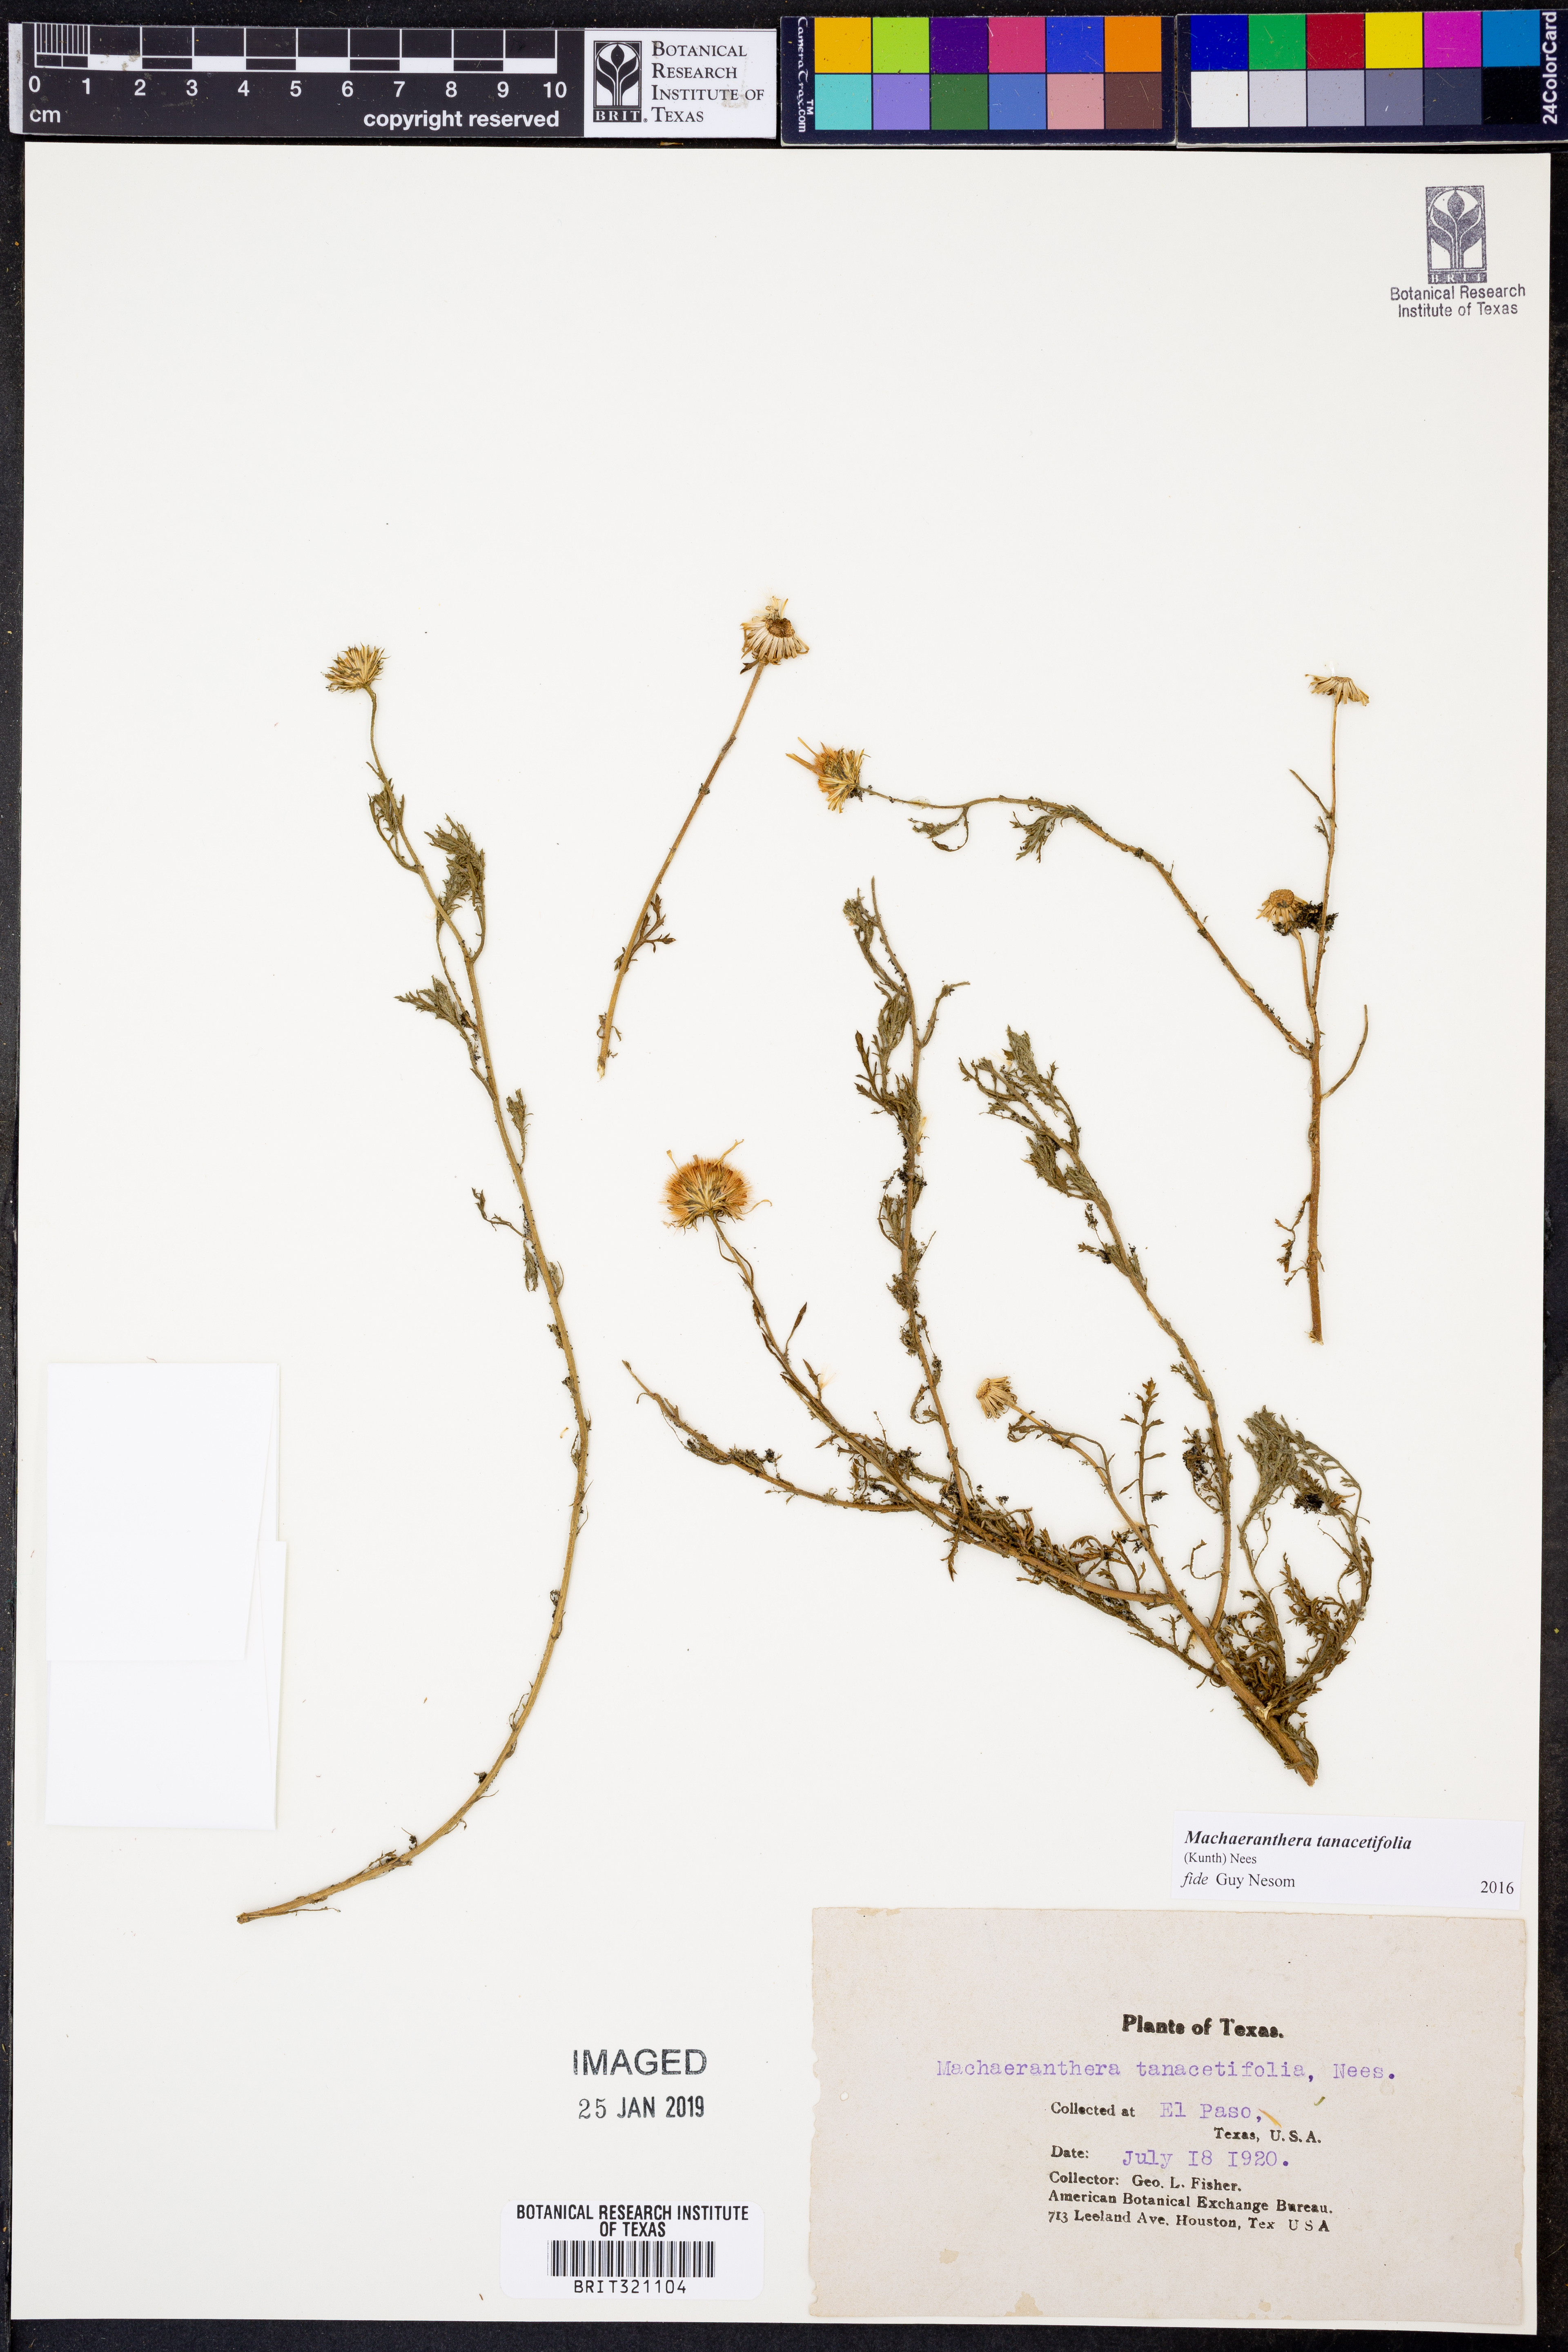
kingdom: Plantae
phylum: Tracheophyta
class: Magnoliopsida
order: Asterales
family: Asteraceae
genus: Machaeranthera
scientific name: Machaeranthera tanacetifolia
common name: Tansy-aster
